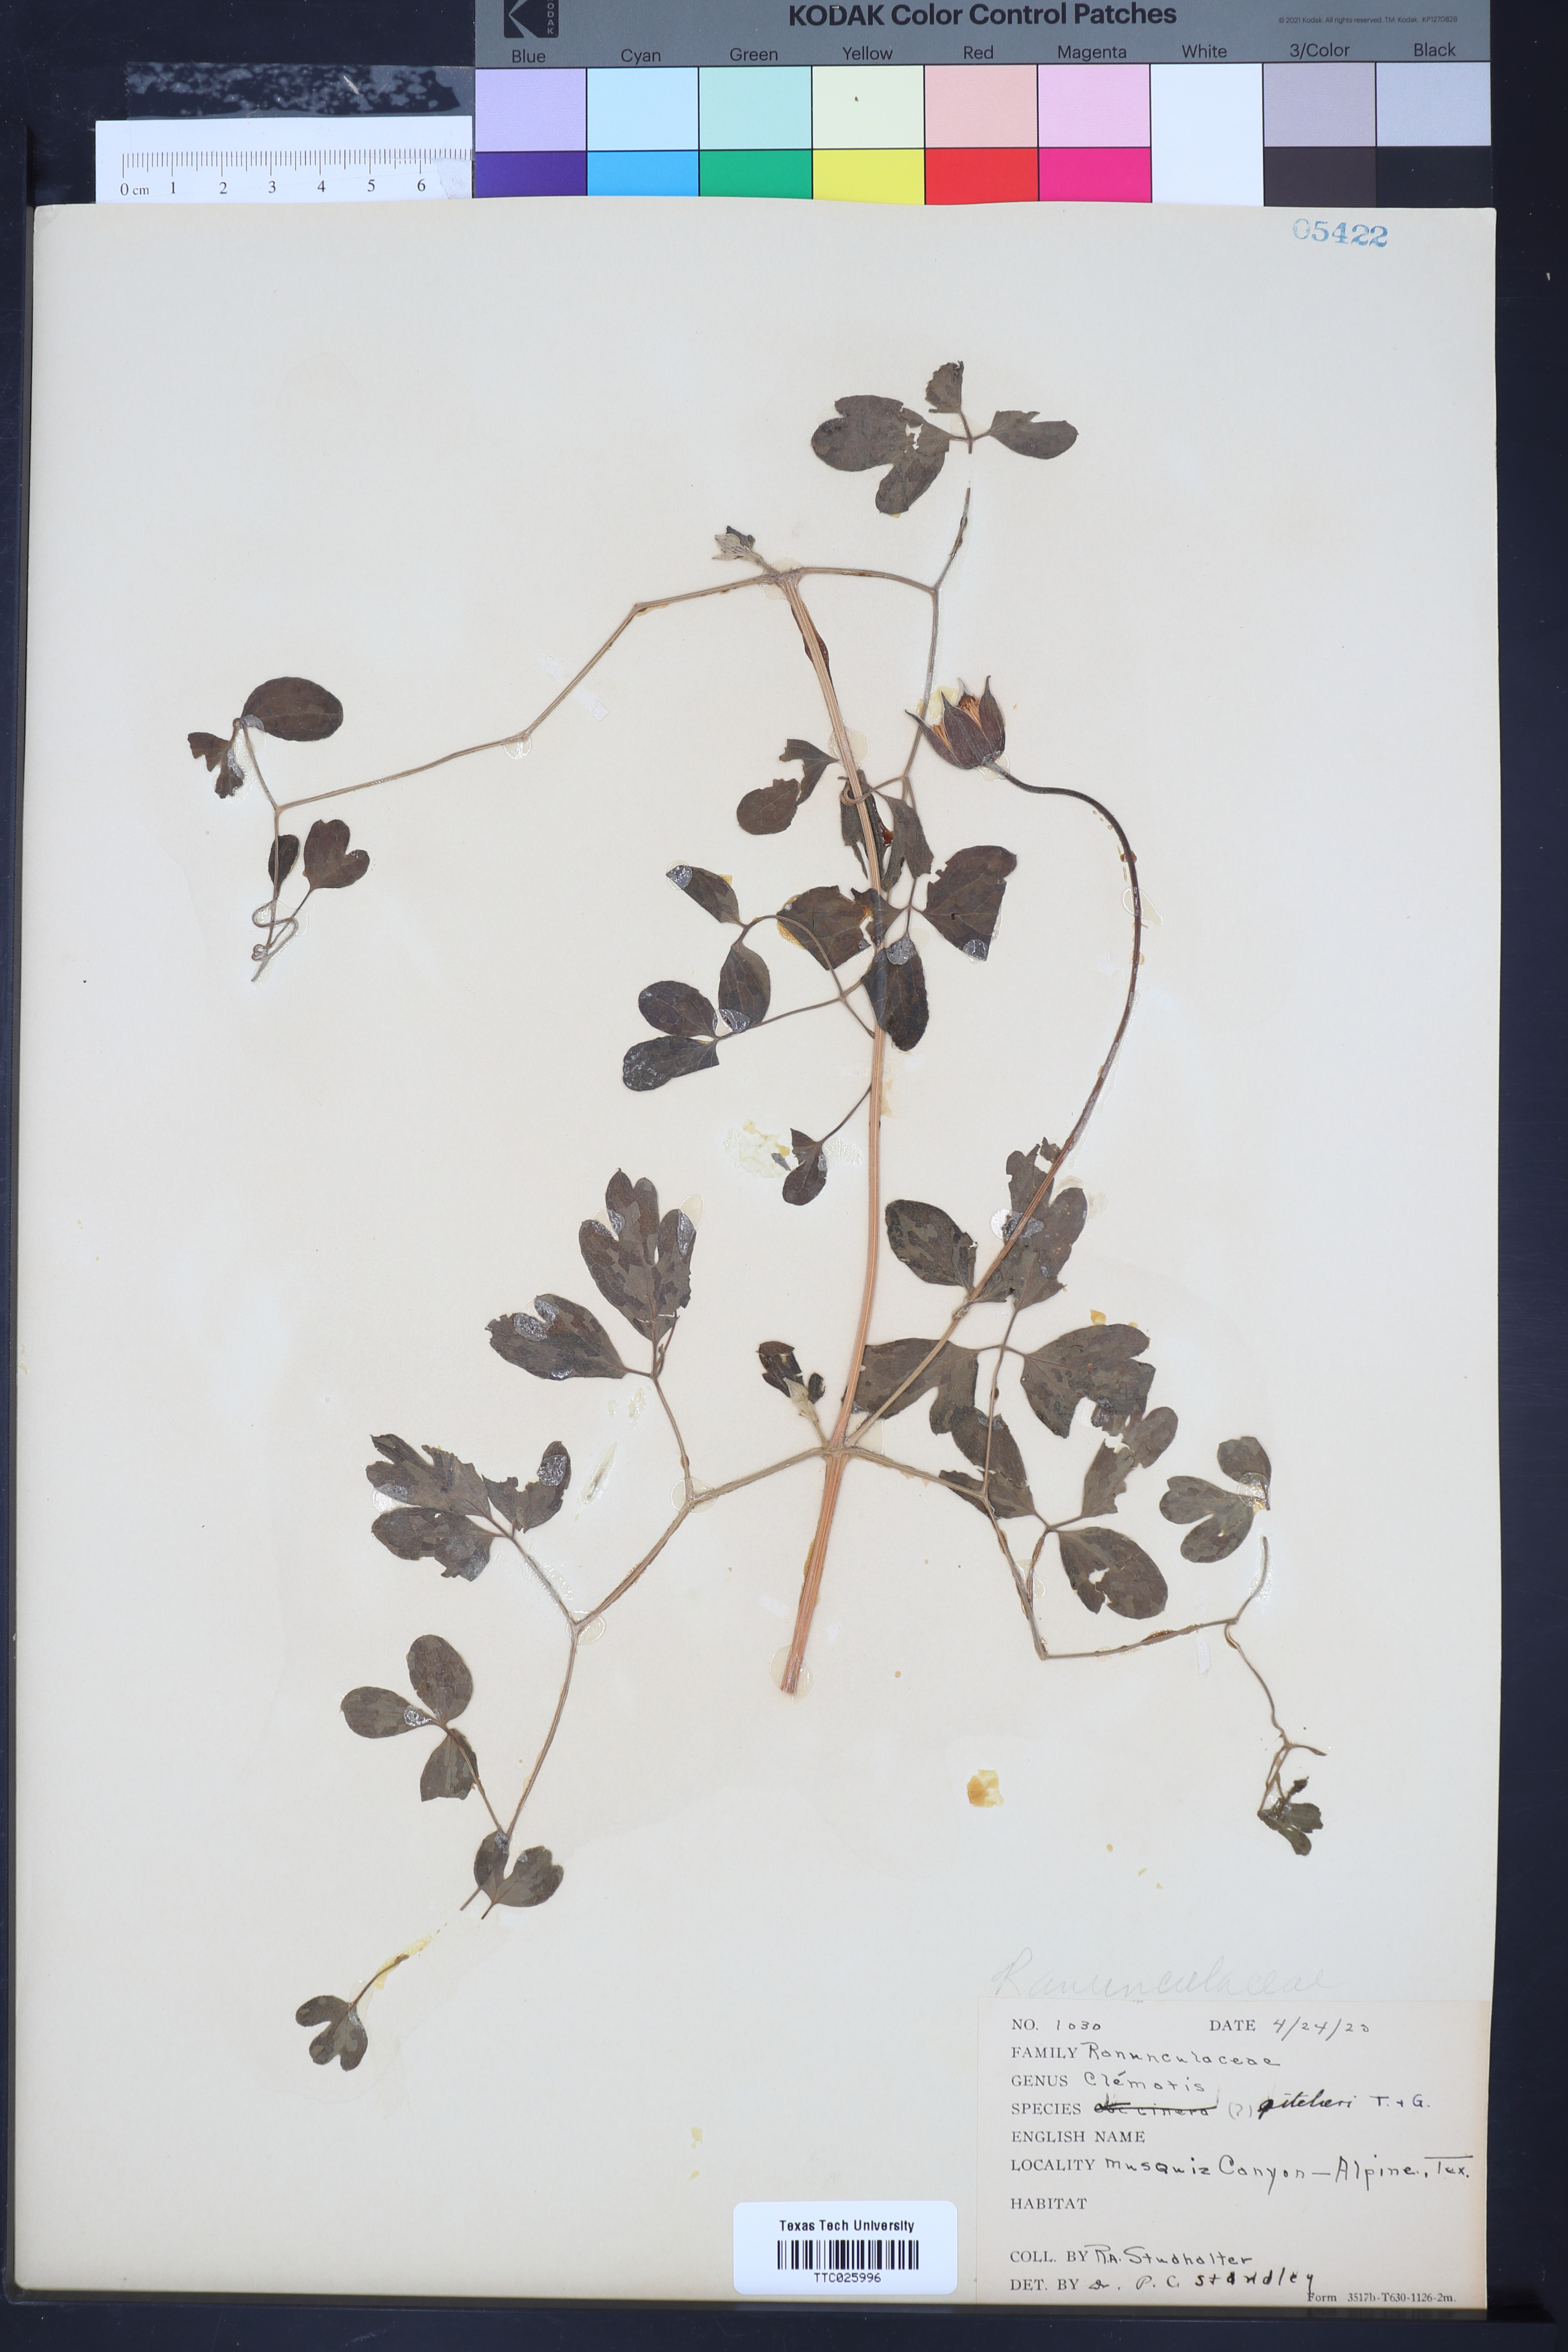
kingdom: Plantae
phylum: Tracheophyta
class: Magnoliopsida
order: Ranunculales
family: Ranunculaceae
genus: Clematis
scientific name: Clematis pitcheri
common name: Bellflower clematis
